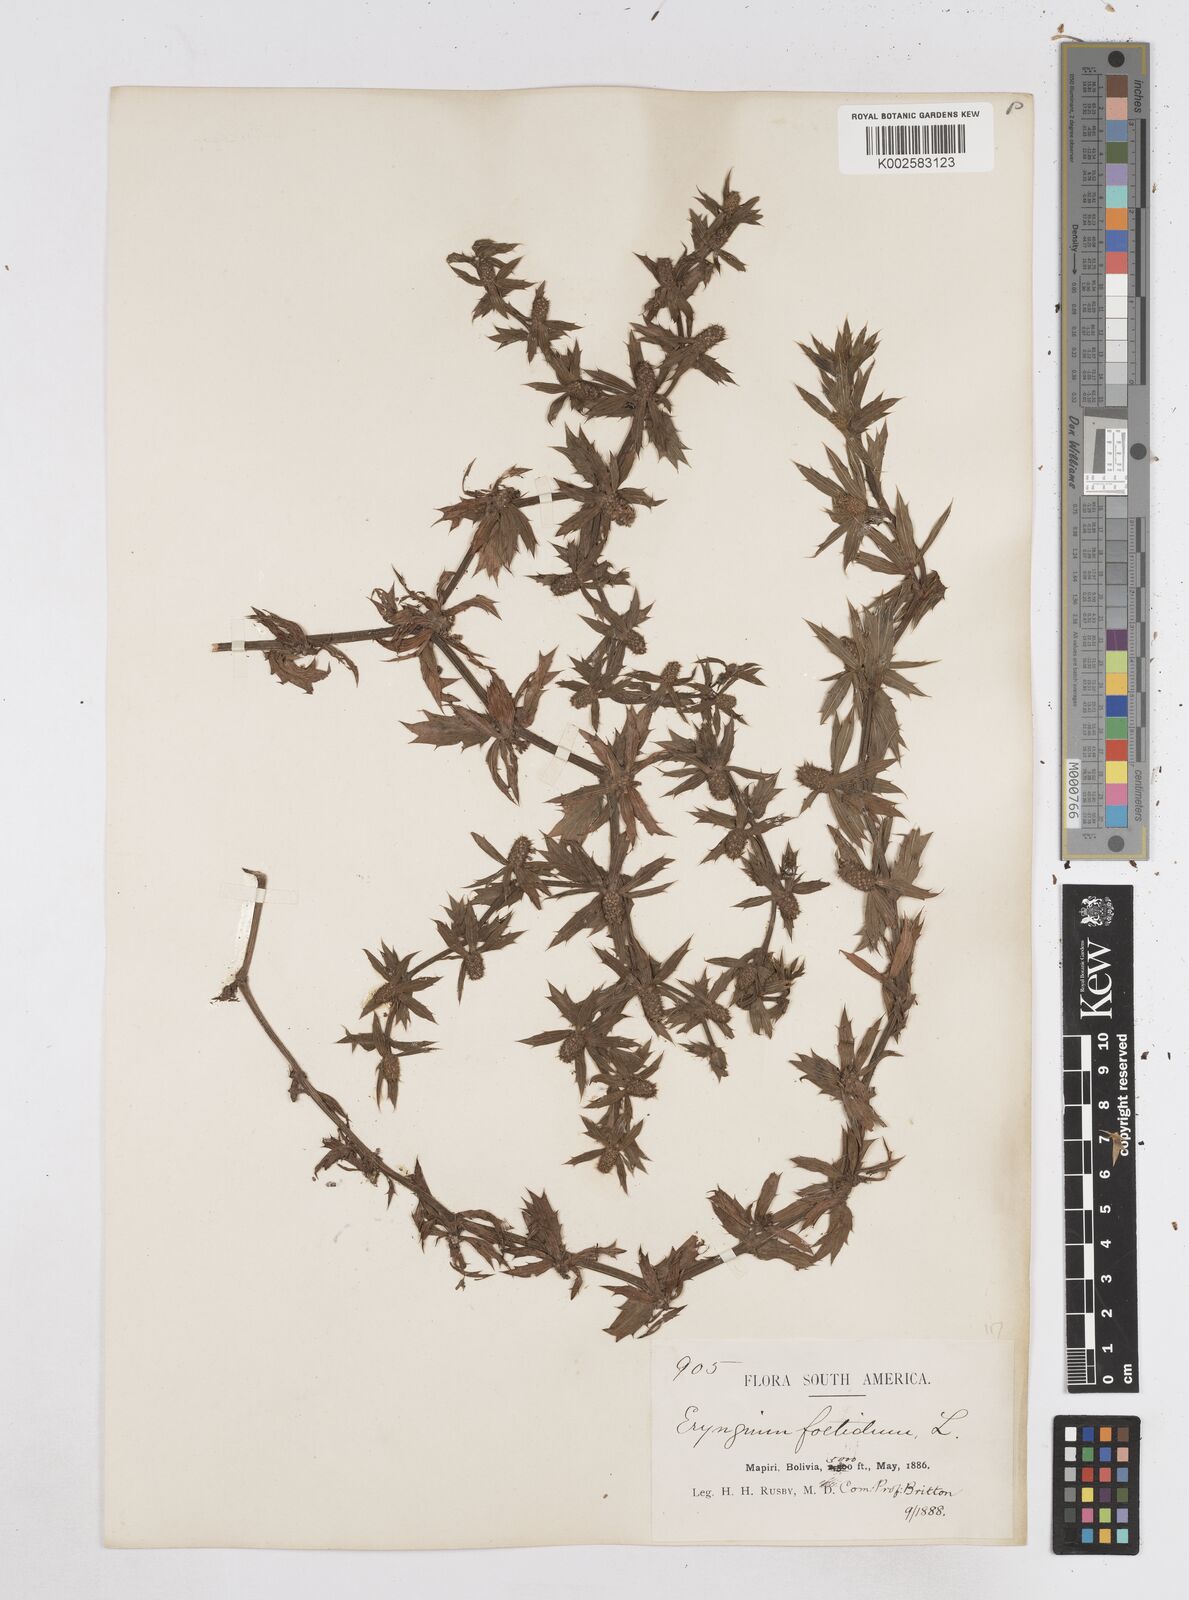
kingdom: Plantae
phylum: Tracheophyta
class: Magnoliopsida
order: Apiales
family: Apiaceae
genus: Eryngium
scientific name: Eryngium foetidum
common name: Fitweed
